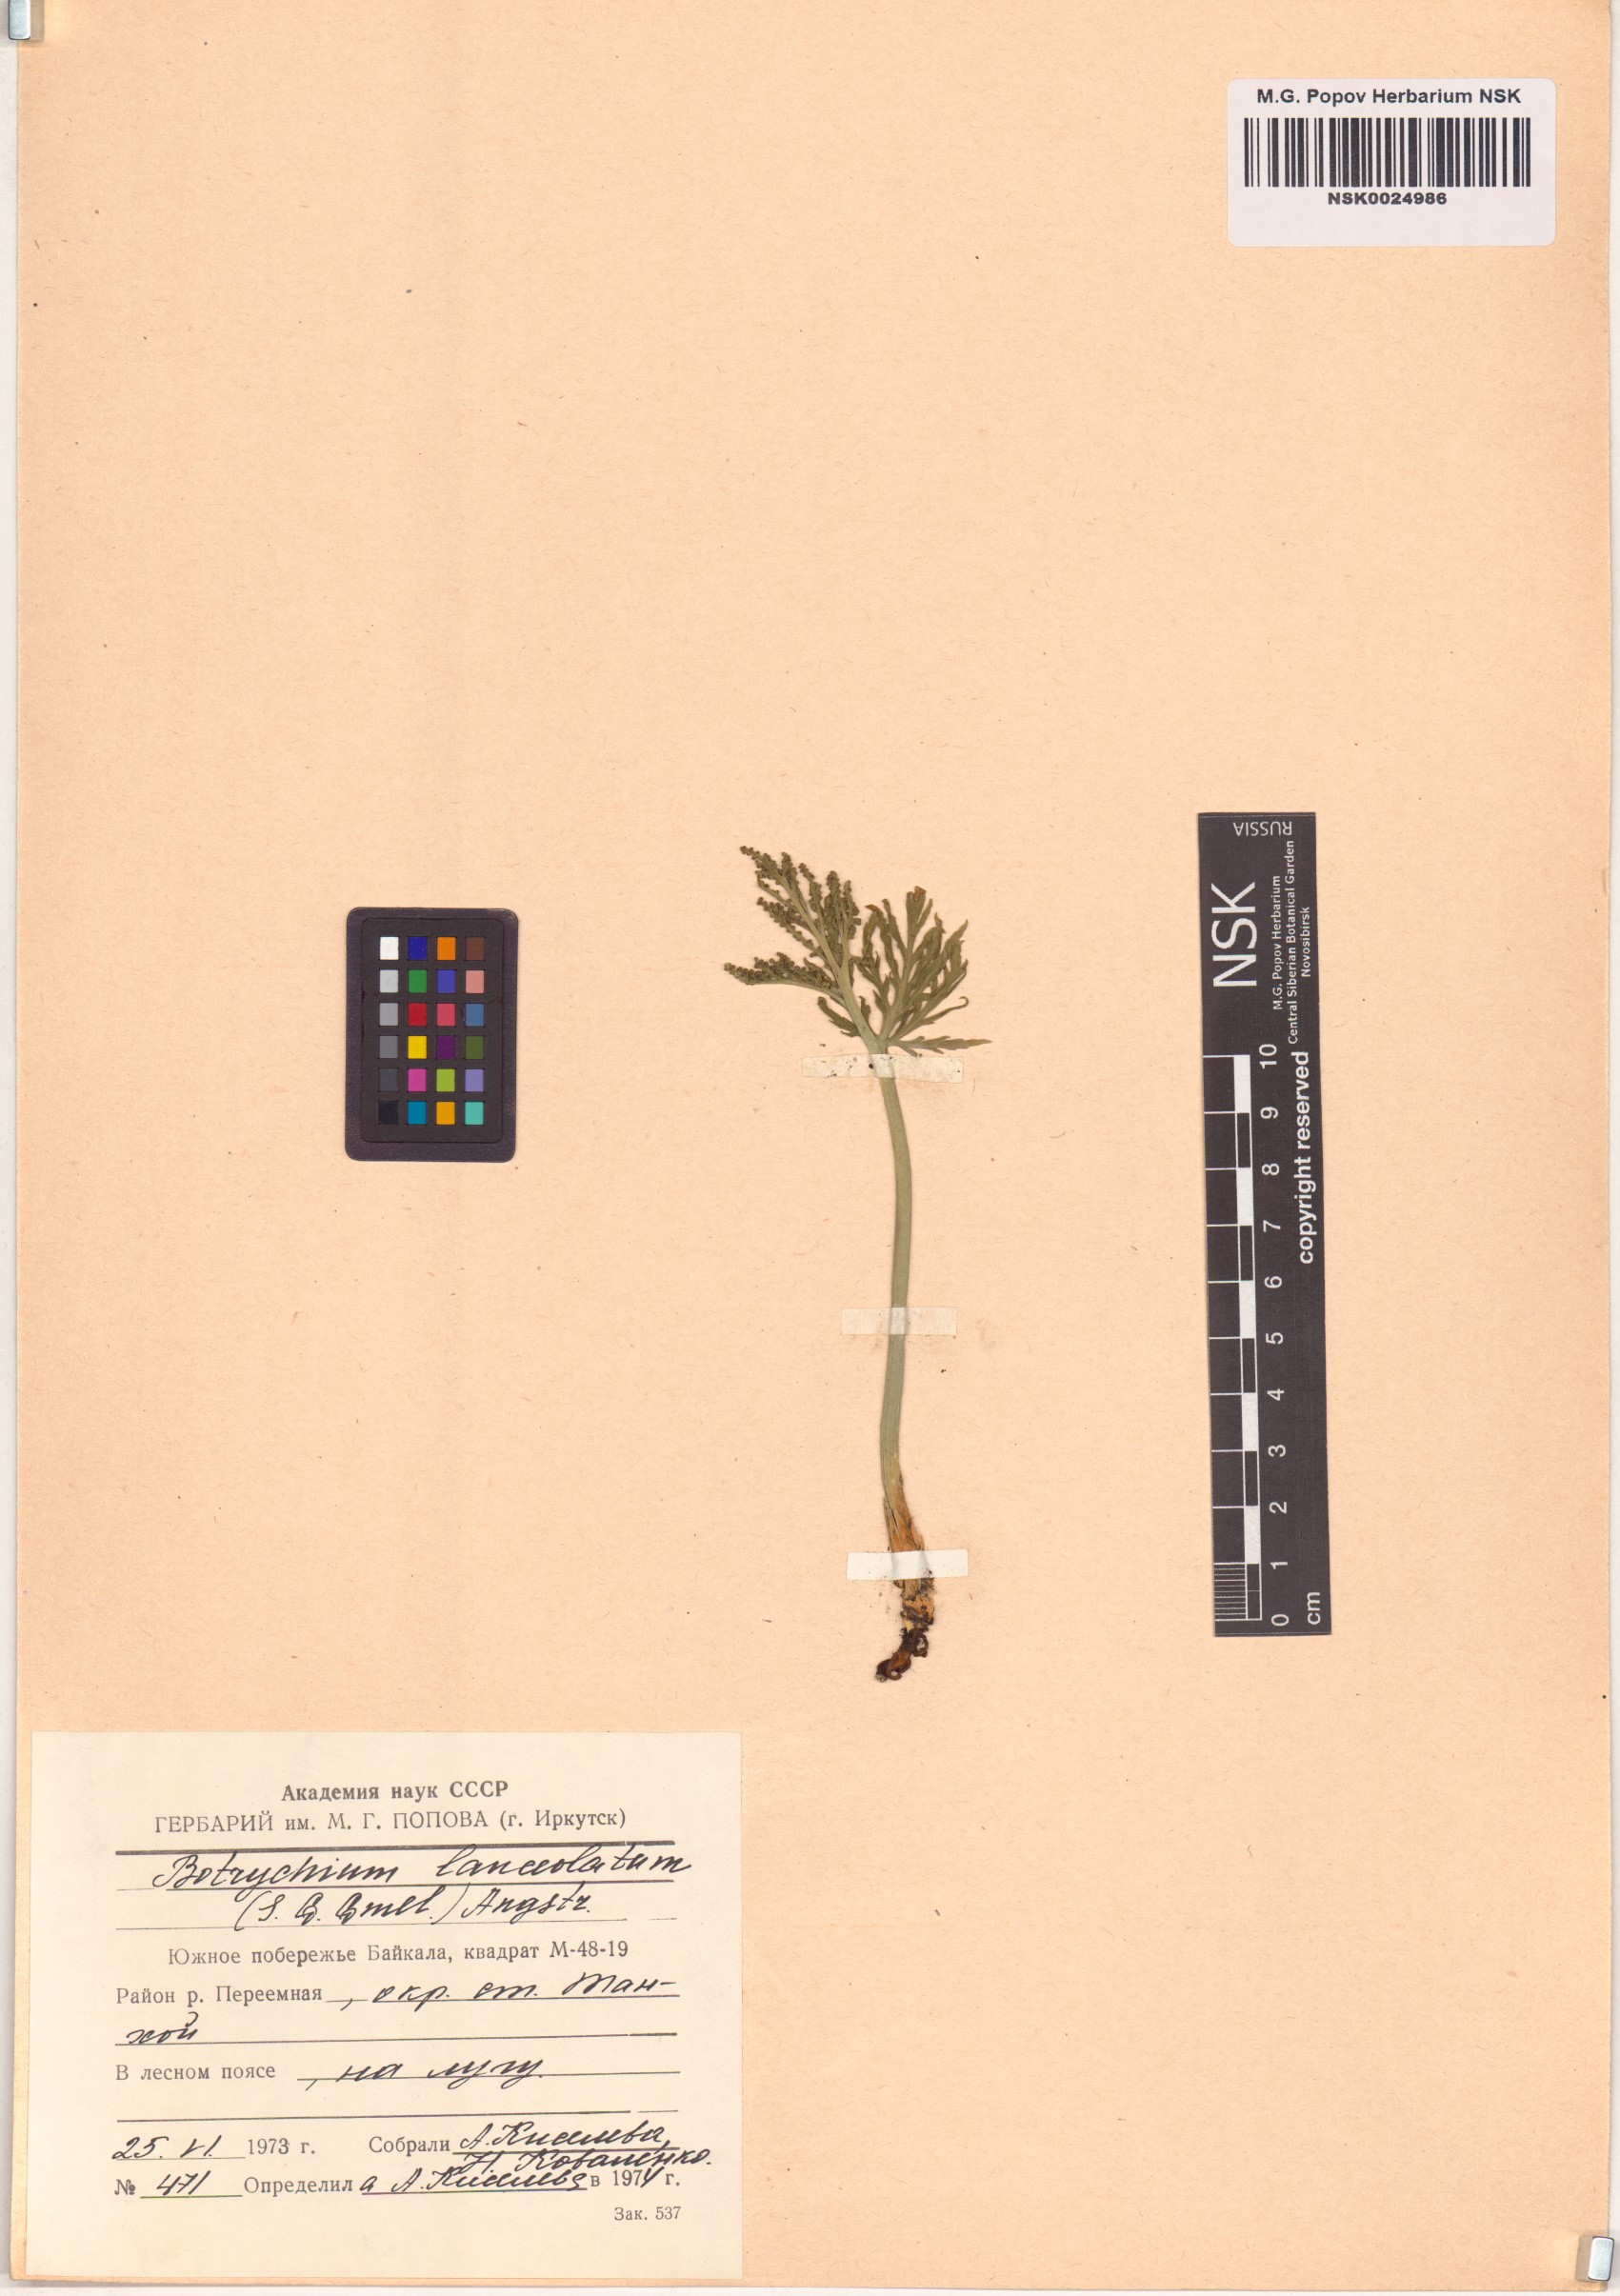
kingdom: Plantae
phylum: Tracheophyta
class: Polypodiopsida
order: Ophioglossales
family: Ophioglossaceae
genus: Botrychium
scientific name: Botrychium lanceolatum
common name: Lance-leaved moonwort
